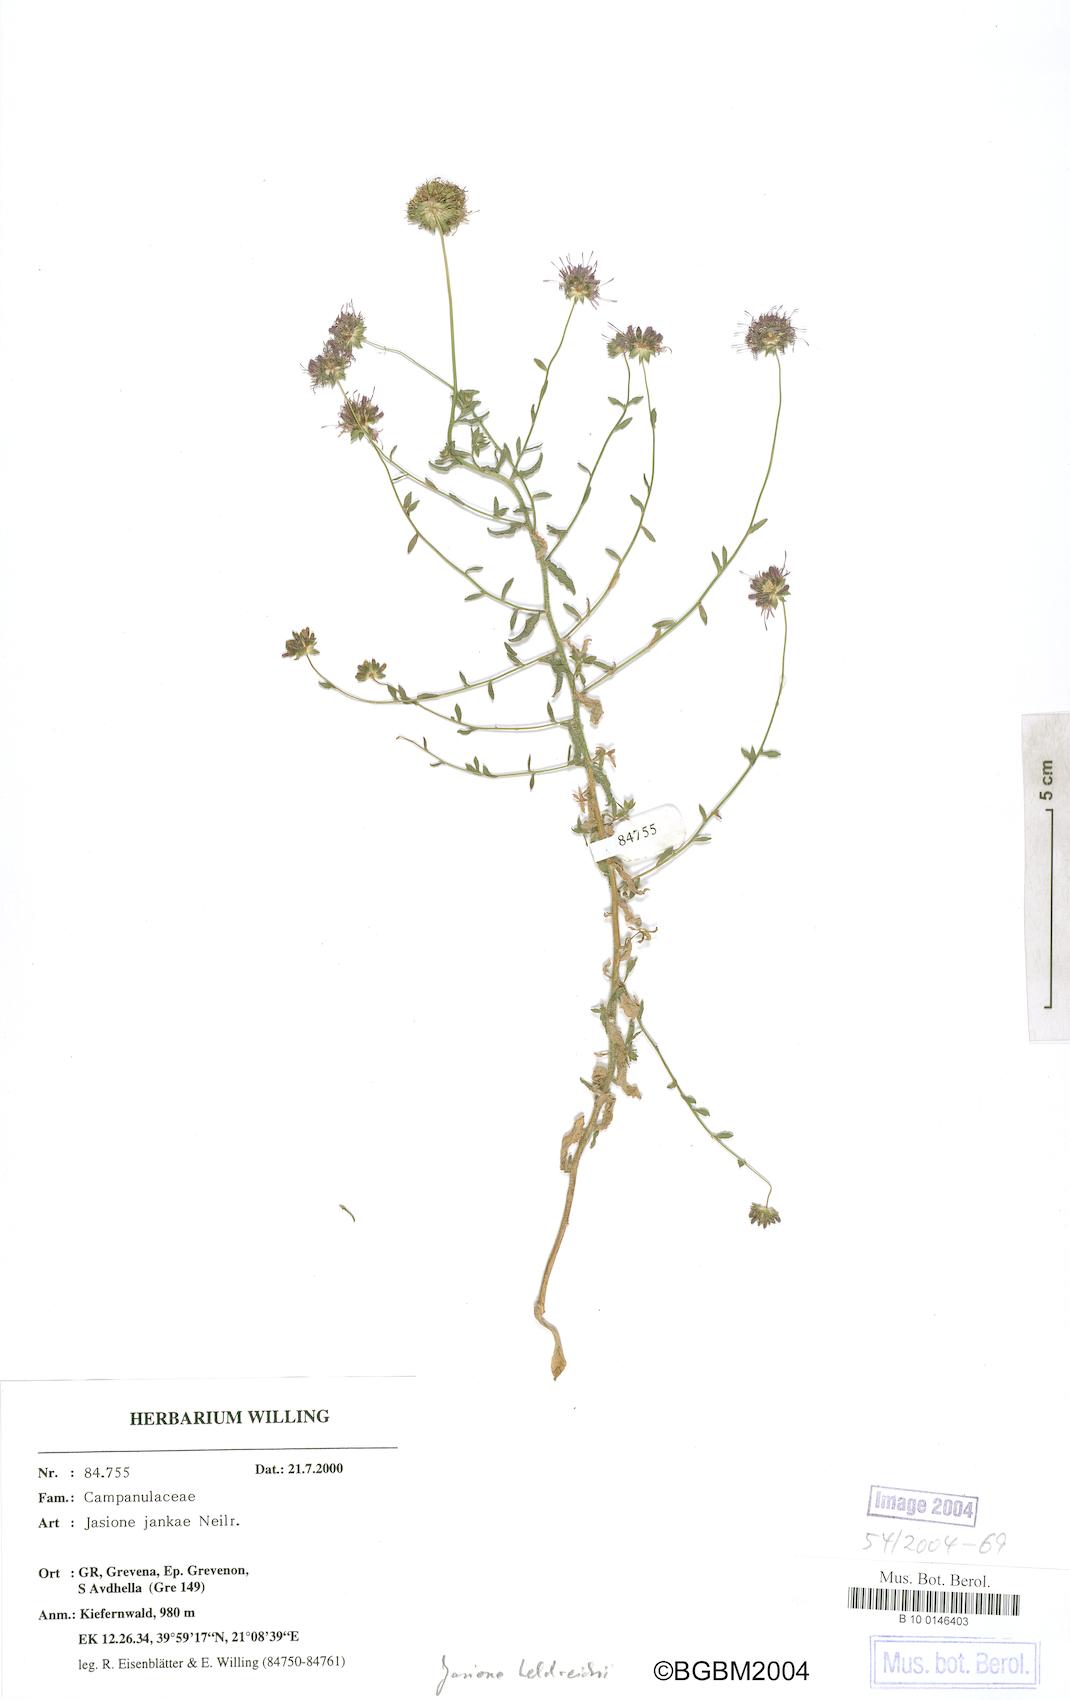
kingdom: Plantae
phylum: Tracheophyta
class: Magnoliopsida
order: Asterales
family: Campanulaceae
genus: Jasione
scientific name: Jasione heldreichii
